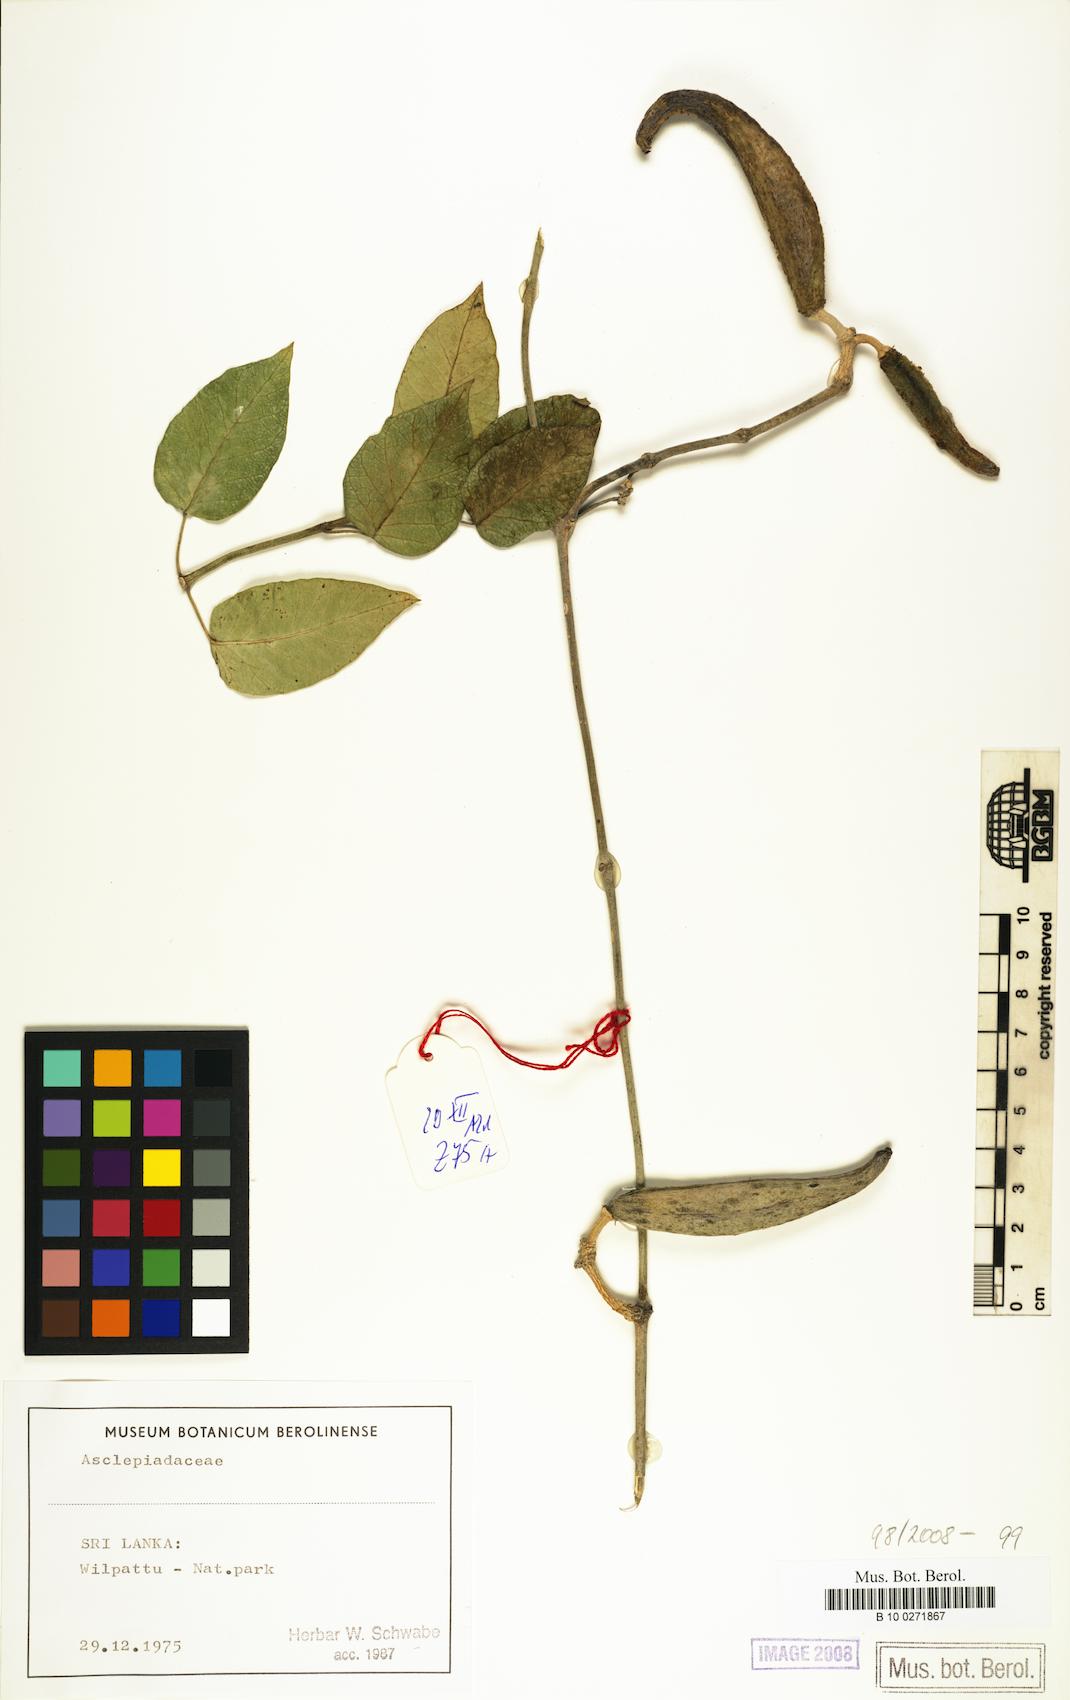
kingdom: Plantae
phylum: Tracheophyta
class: Magnoliopsida
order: Gentianales
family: Asclepiadaceae
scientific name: Asclepiadaceae
